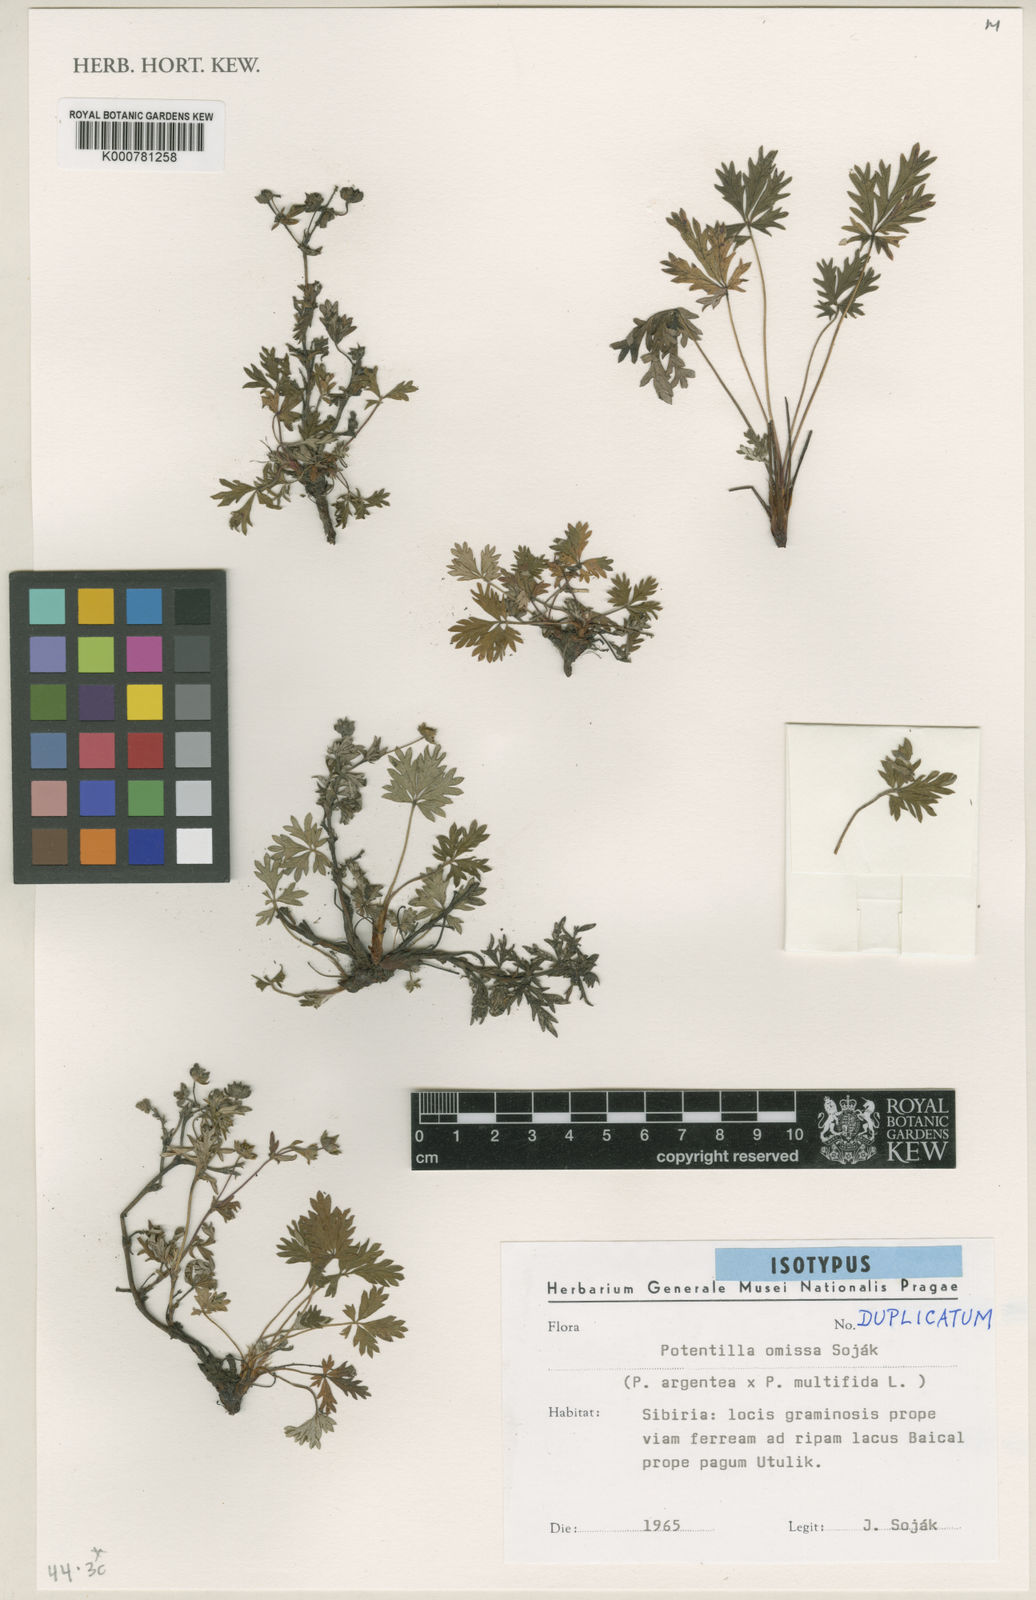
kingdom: Plantae
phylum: Tracheophyta
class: Magnoliopsida
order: Rosales
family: Rosaceae
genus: Potentilla
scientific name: Potentilla
